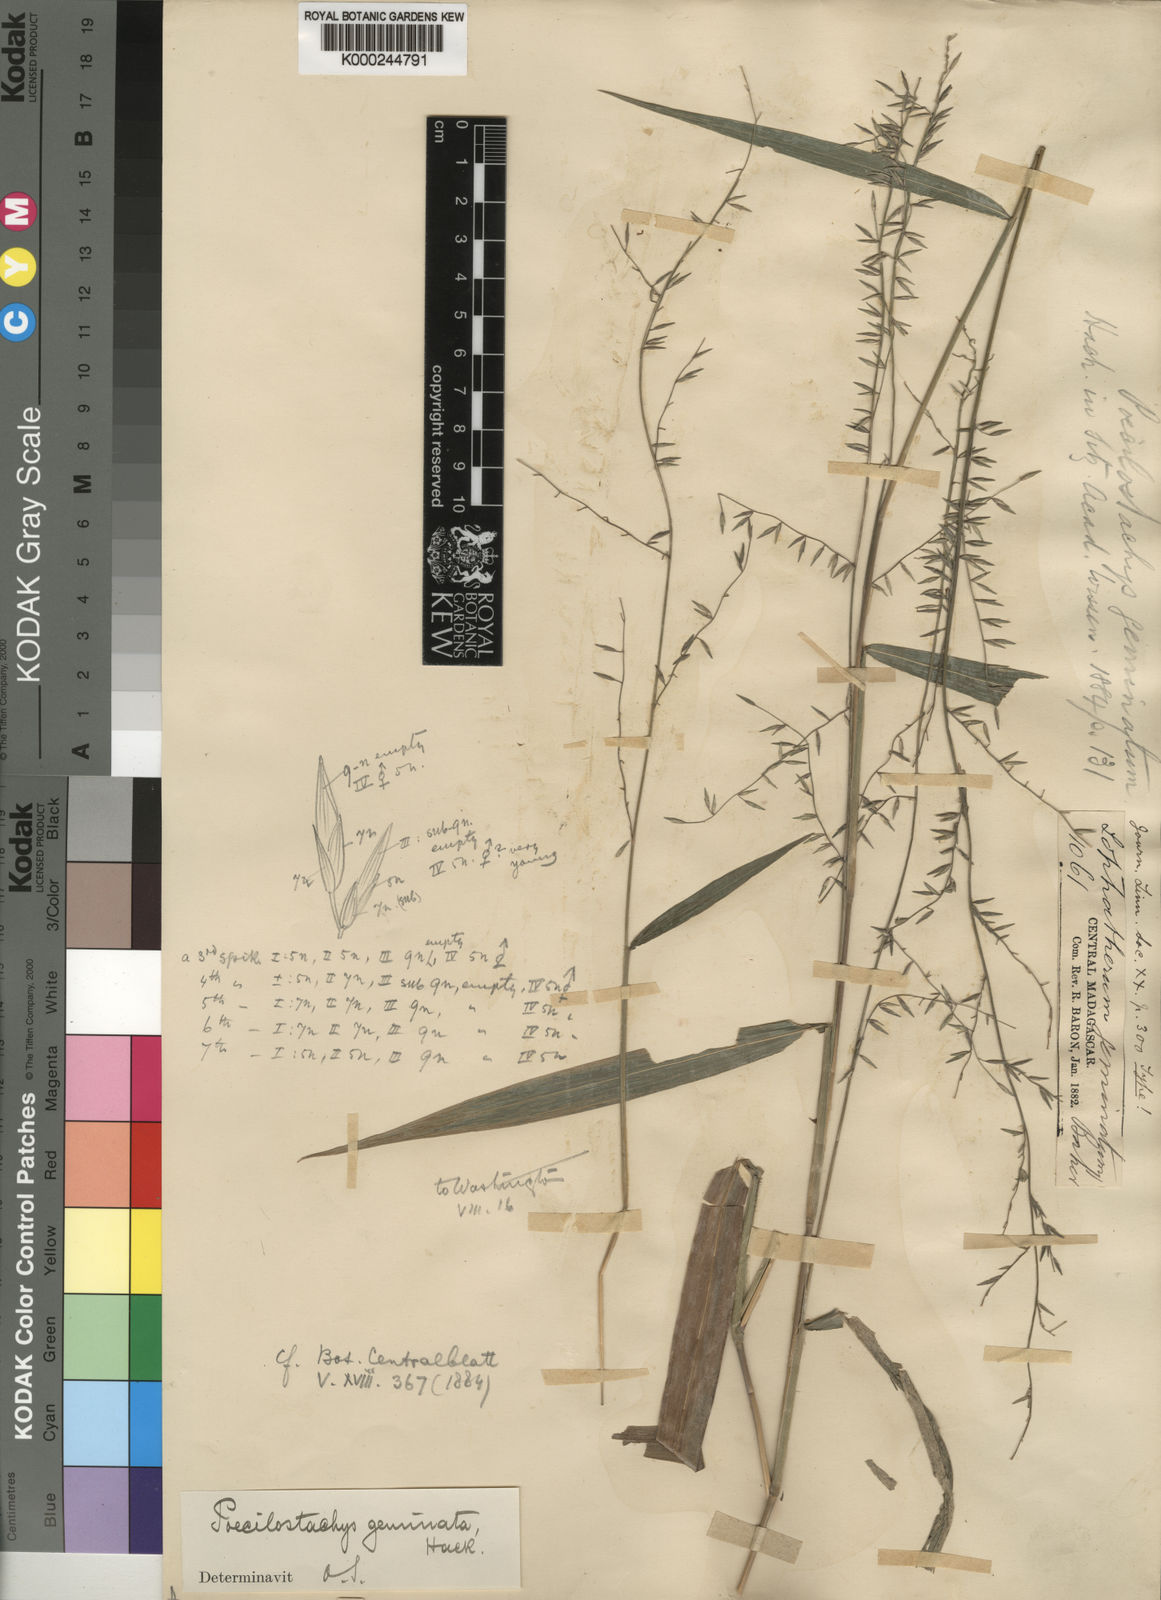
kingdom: Plantae
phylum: Tracheophyta
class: Liliopsida
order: Poales
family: Poaceae
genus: Poecilostachys
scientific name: Poecilostachys geminata
